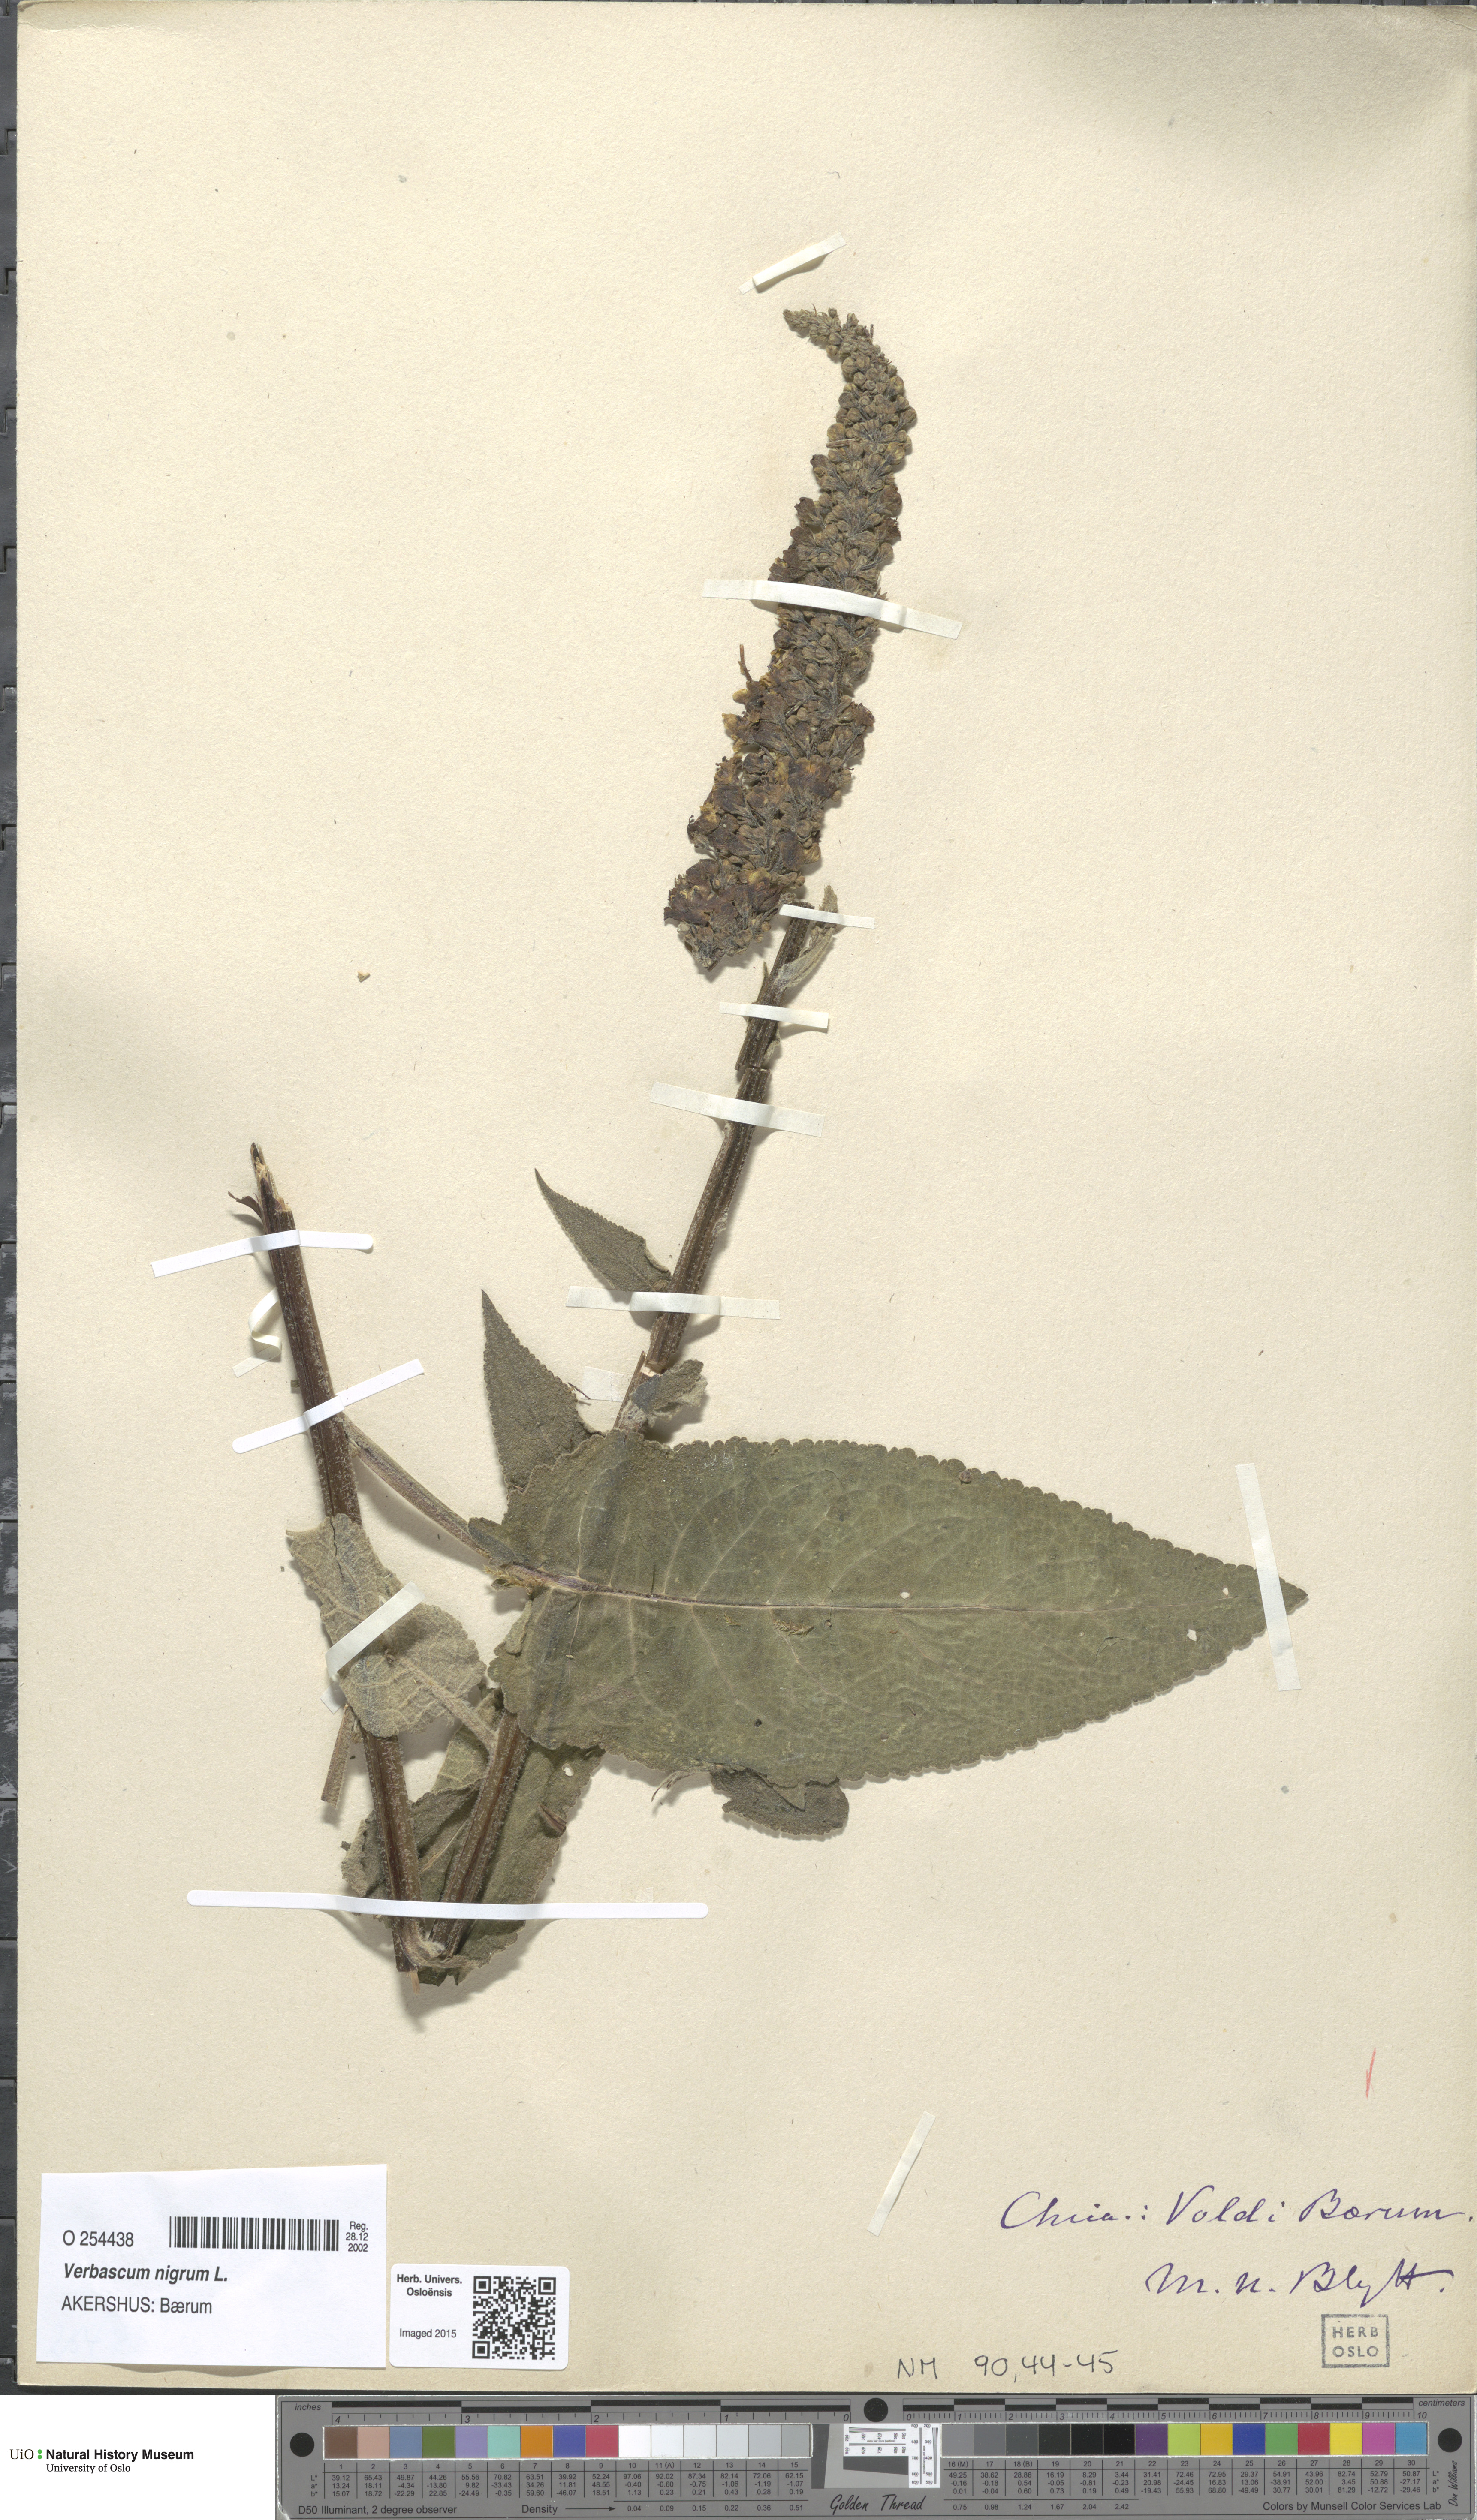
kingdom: Plantae
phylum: Tracheophyta
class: Magnoliopsida
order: Lamiales
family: Scrophulariaceae
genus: Verbascum
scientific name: Verbascum nigrum
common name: Dark mullein
